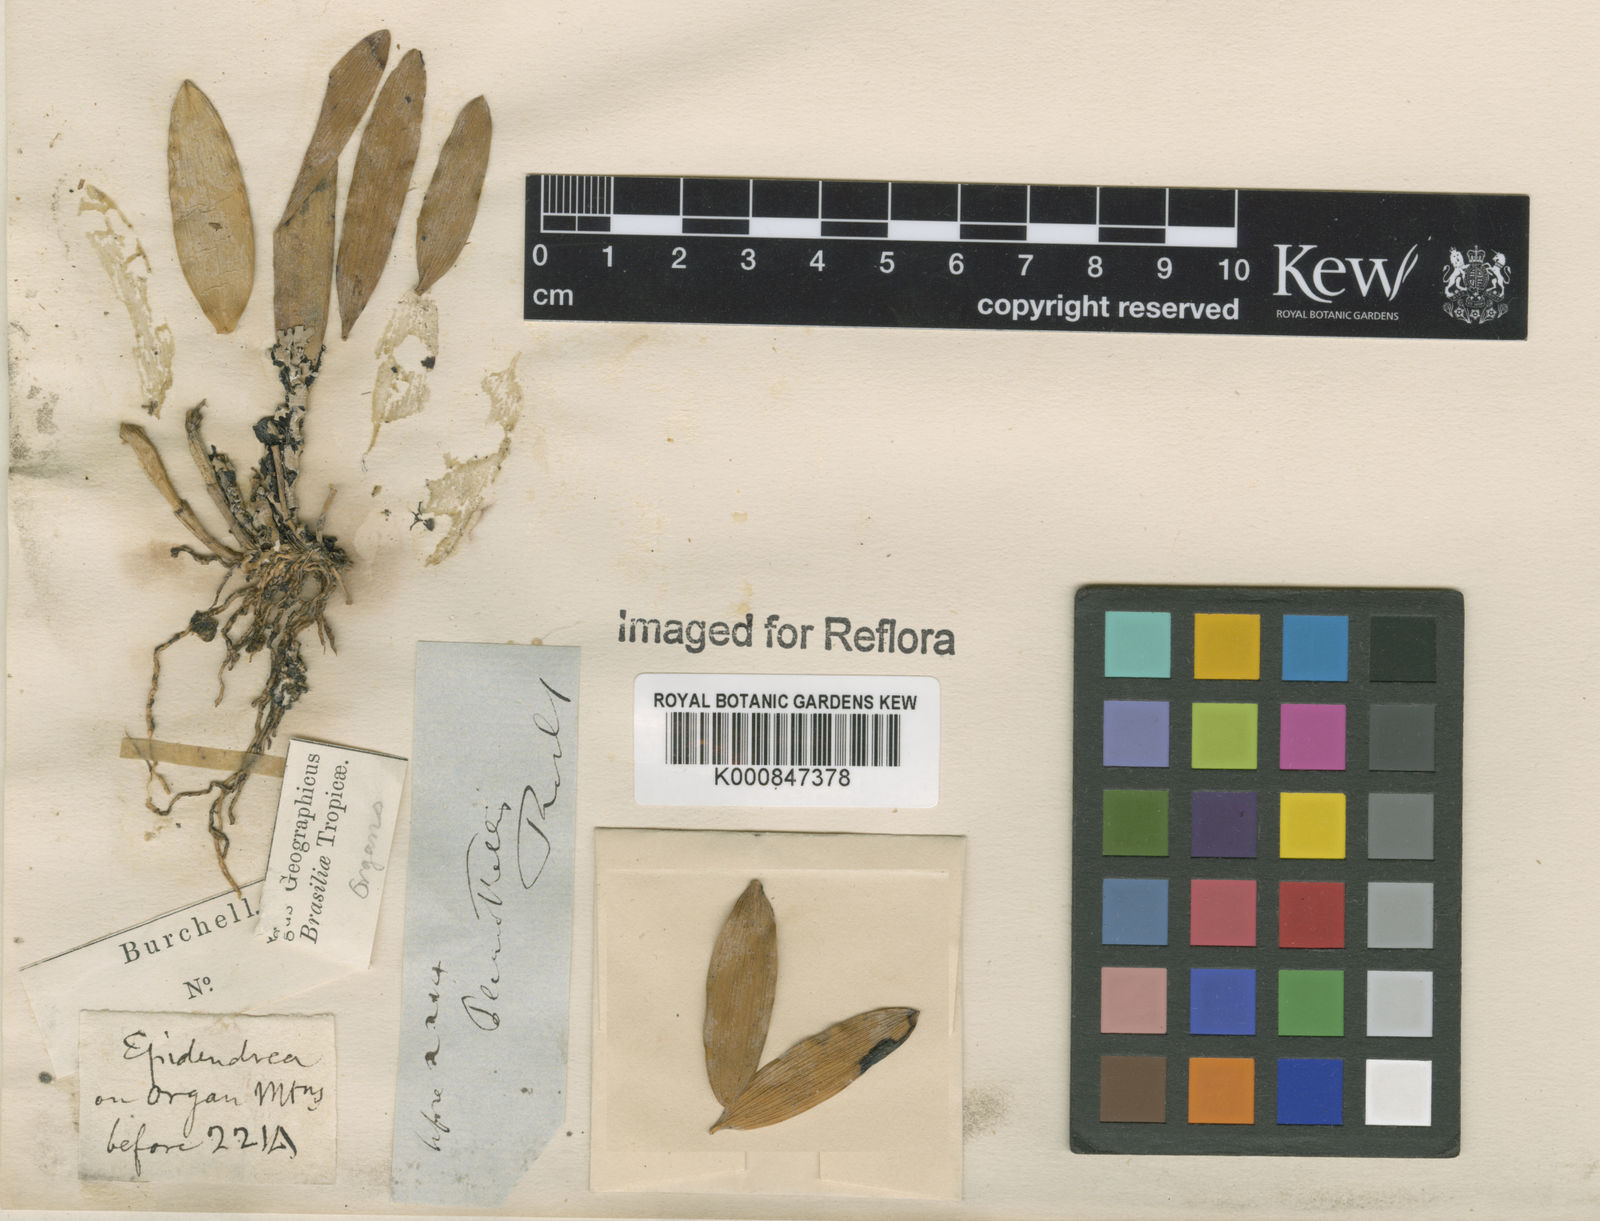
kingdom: Plantae
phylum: Tracheophyta
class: Liliopsida
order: Asparagales
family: Orchidaceae
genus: Pleurothallis
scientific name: Pleurothallis
